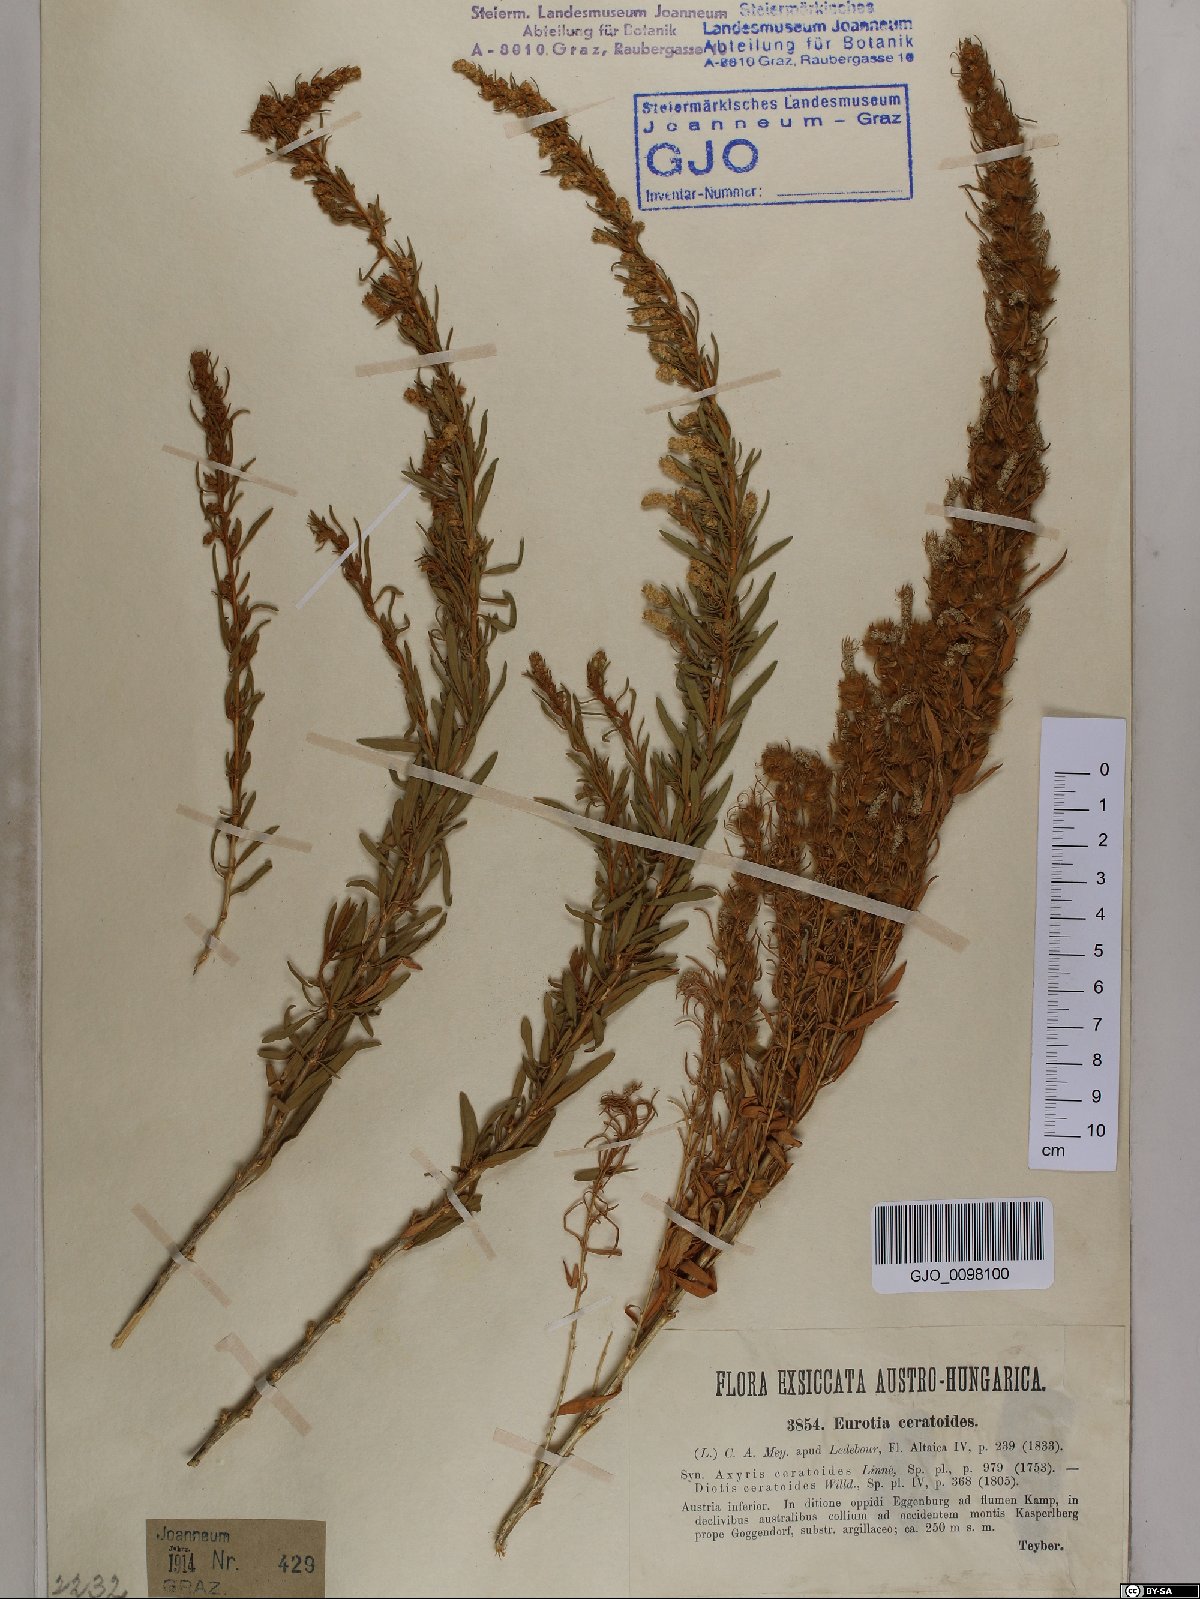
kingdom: Plantae
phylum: Tracheophyta
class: Magnoliopsida
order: Caryophyllales
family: Amaranthaceae
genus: Krascheninnikovia
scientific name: Krascheninnikovia ceratoides
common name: Pamirian winterfat
